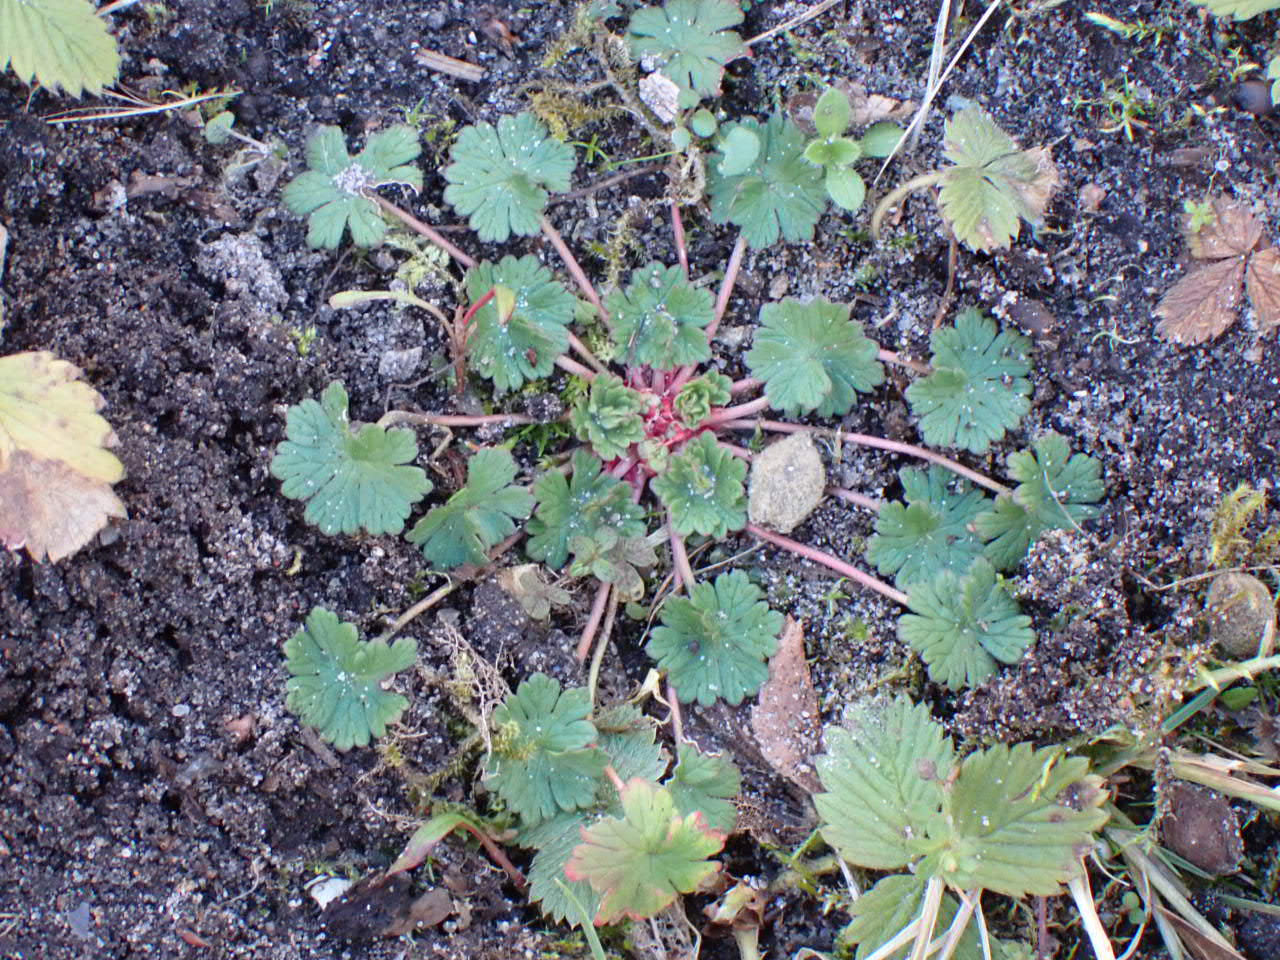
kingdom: Plantae
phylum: Tracheophyta
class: Magnoliopsida
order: Geraniales
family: Geraniaceae
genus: Geranium
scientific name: Geranium pusillum
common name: Liden storkenæb
